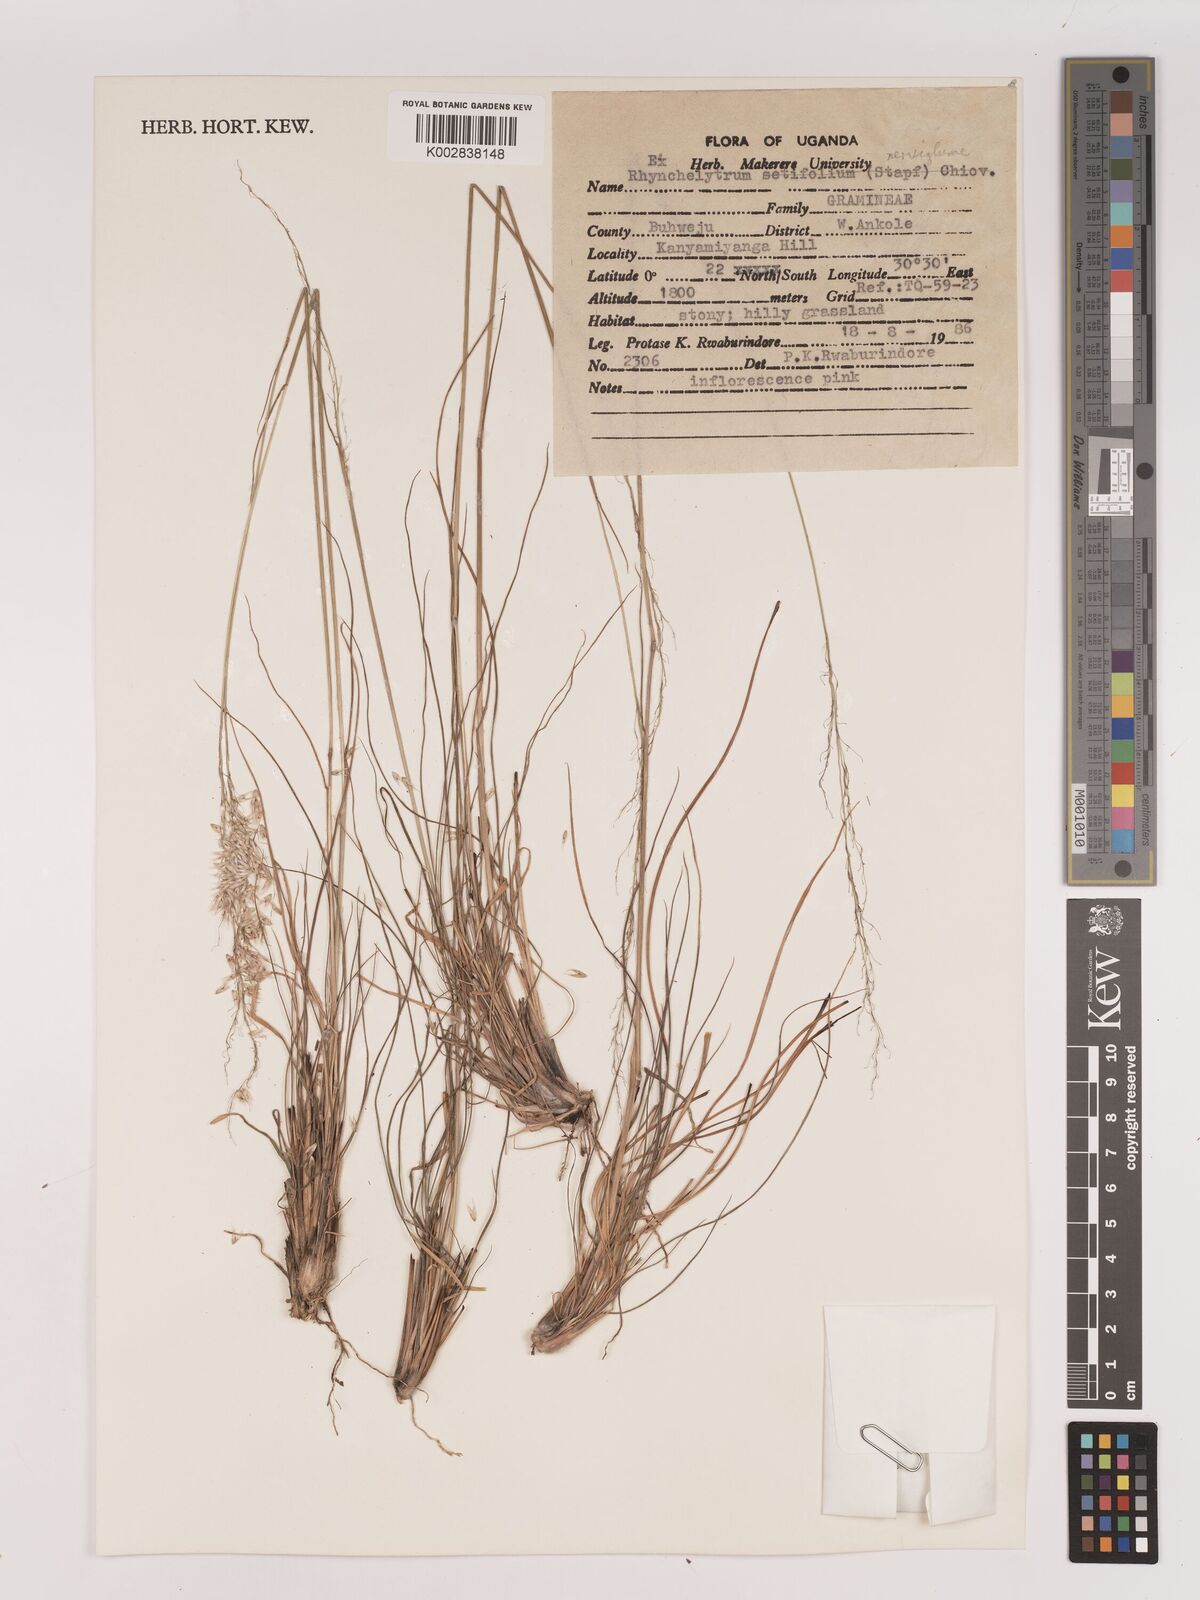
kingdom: Plantae
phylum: Tracheophyta
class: Liliopsida
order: Poales
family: Poaceae
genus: Melinis
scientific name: Melinis nerviglumis
